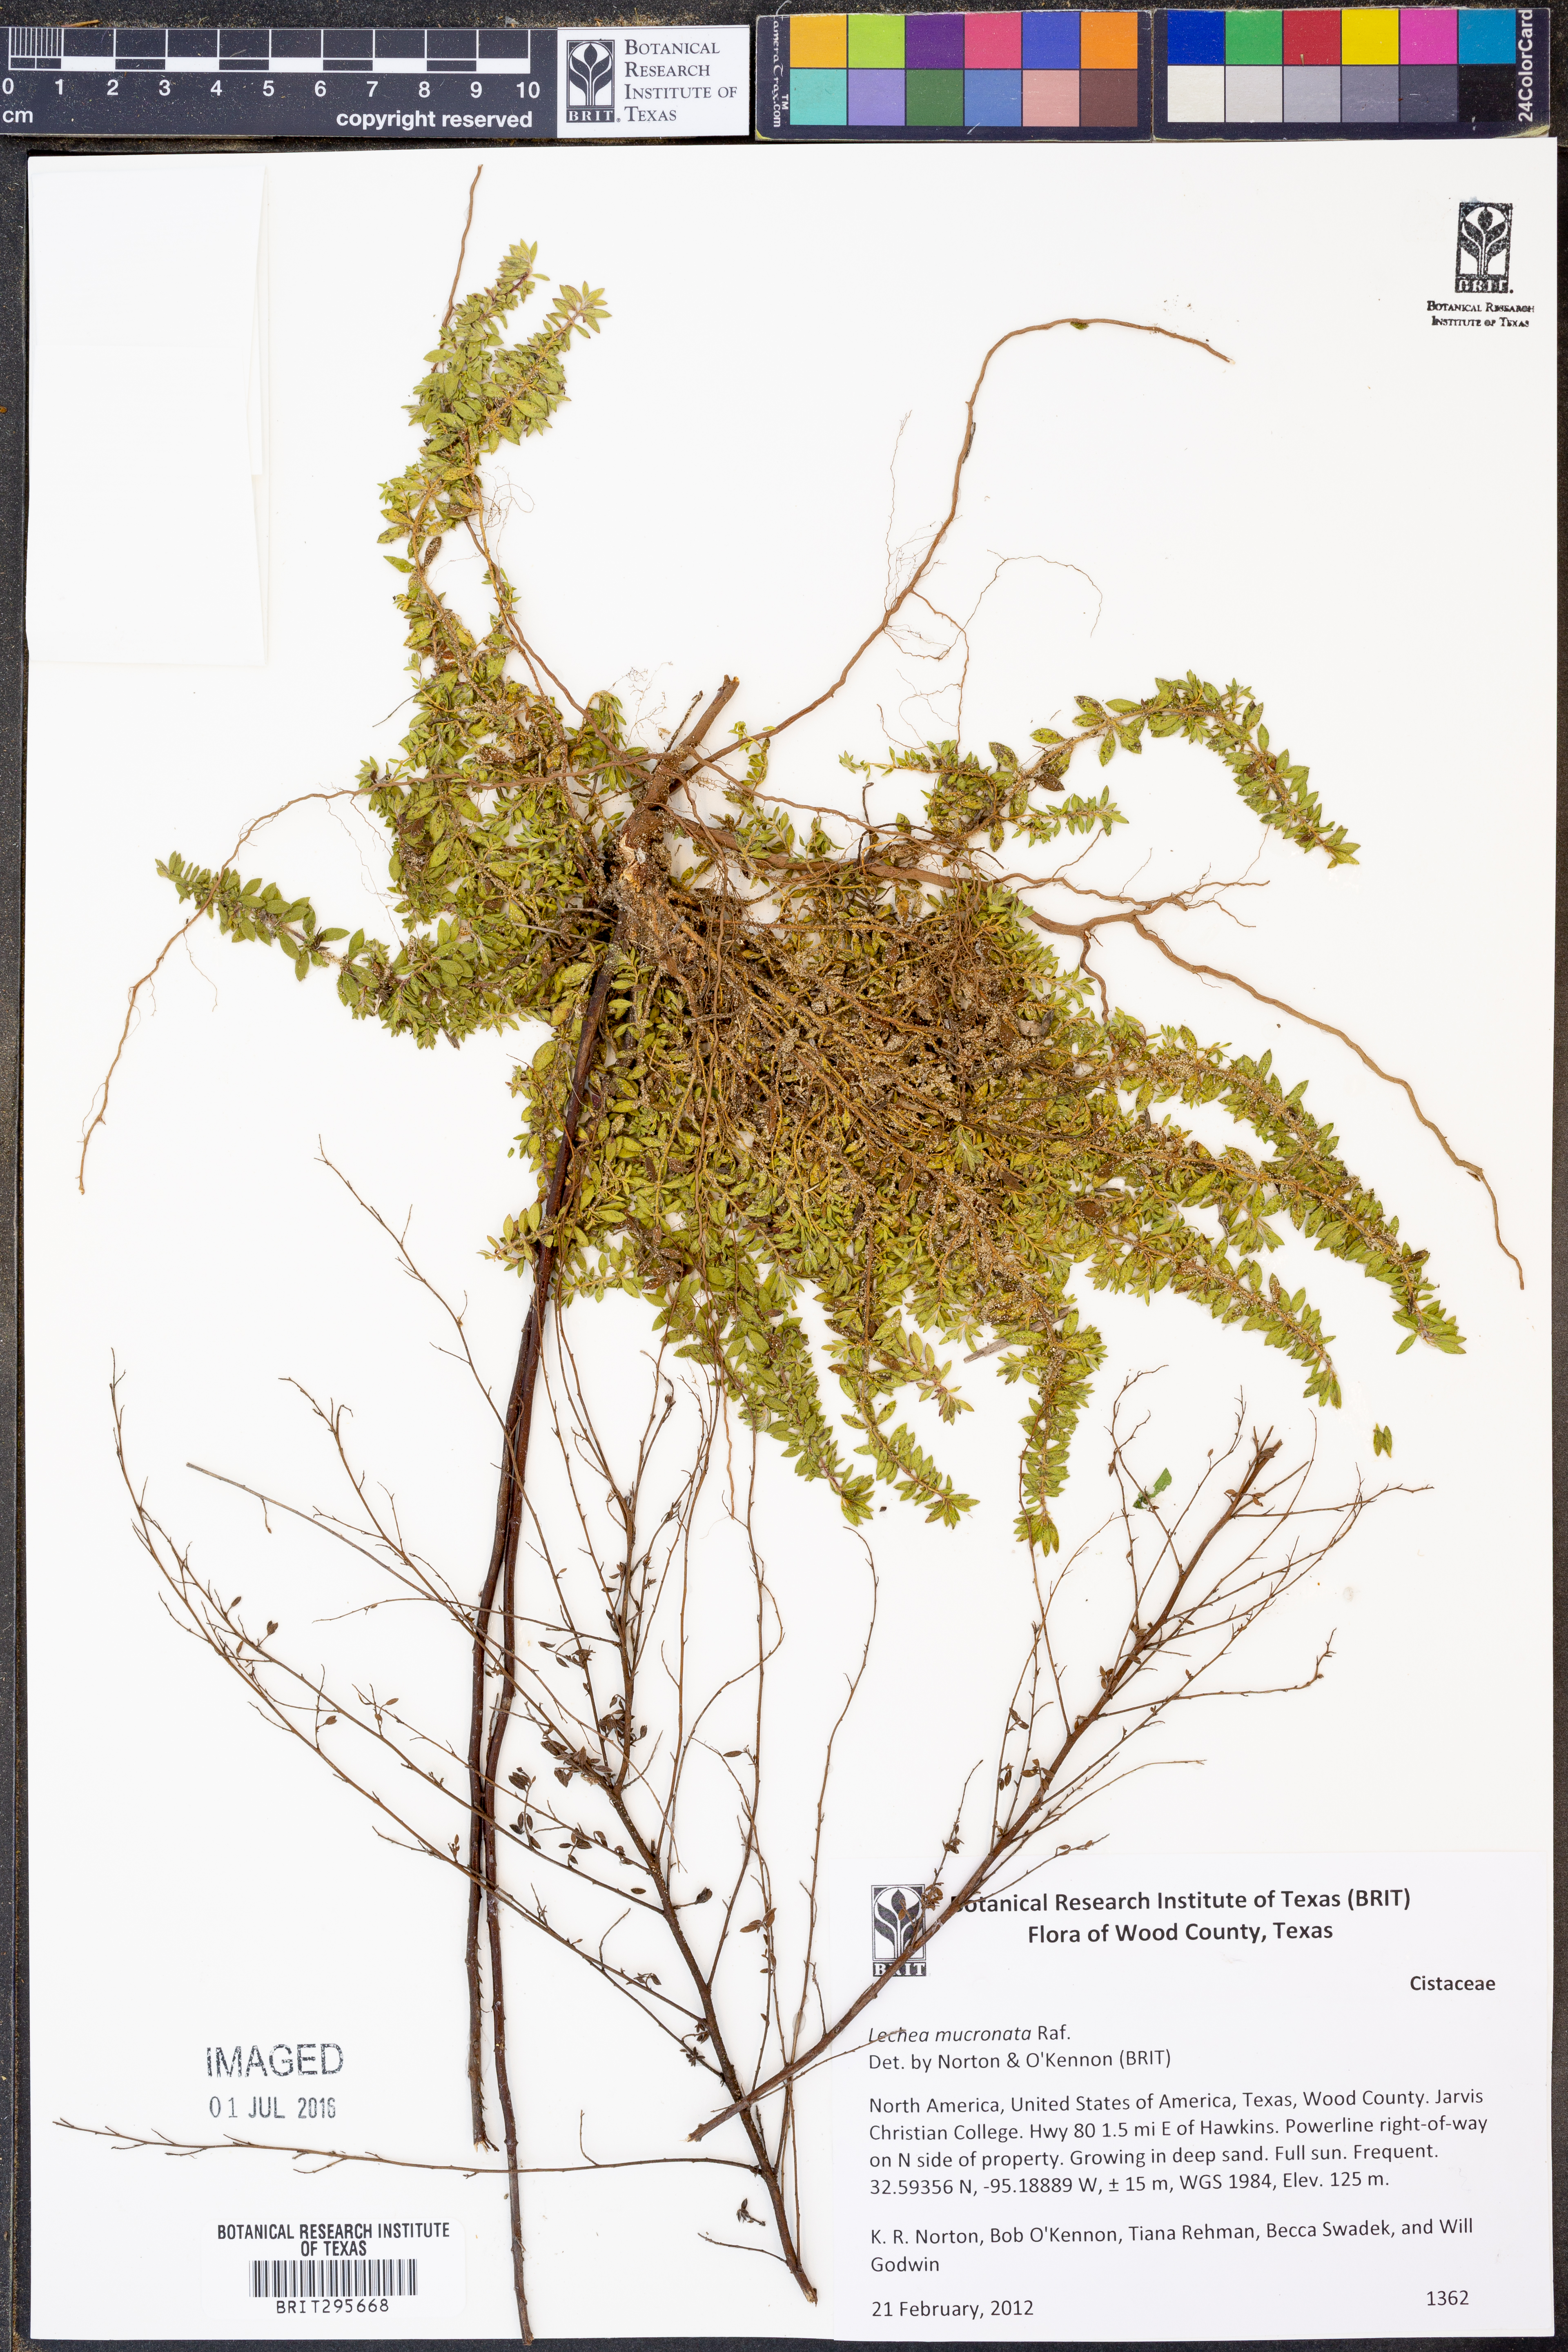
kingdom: Plantae
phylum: Tracheophyta
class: Magnoliopsida
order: Malvales
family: Cistaceae
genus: Lechea
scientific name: Lechea mucronata
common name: Hairy pinweed
